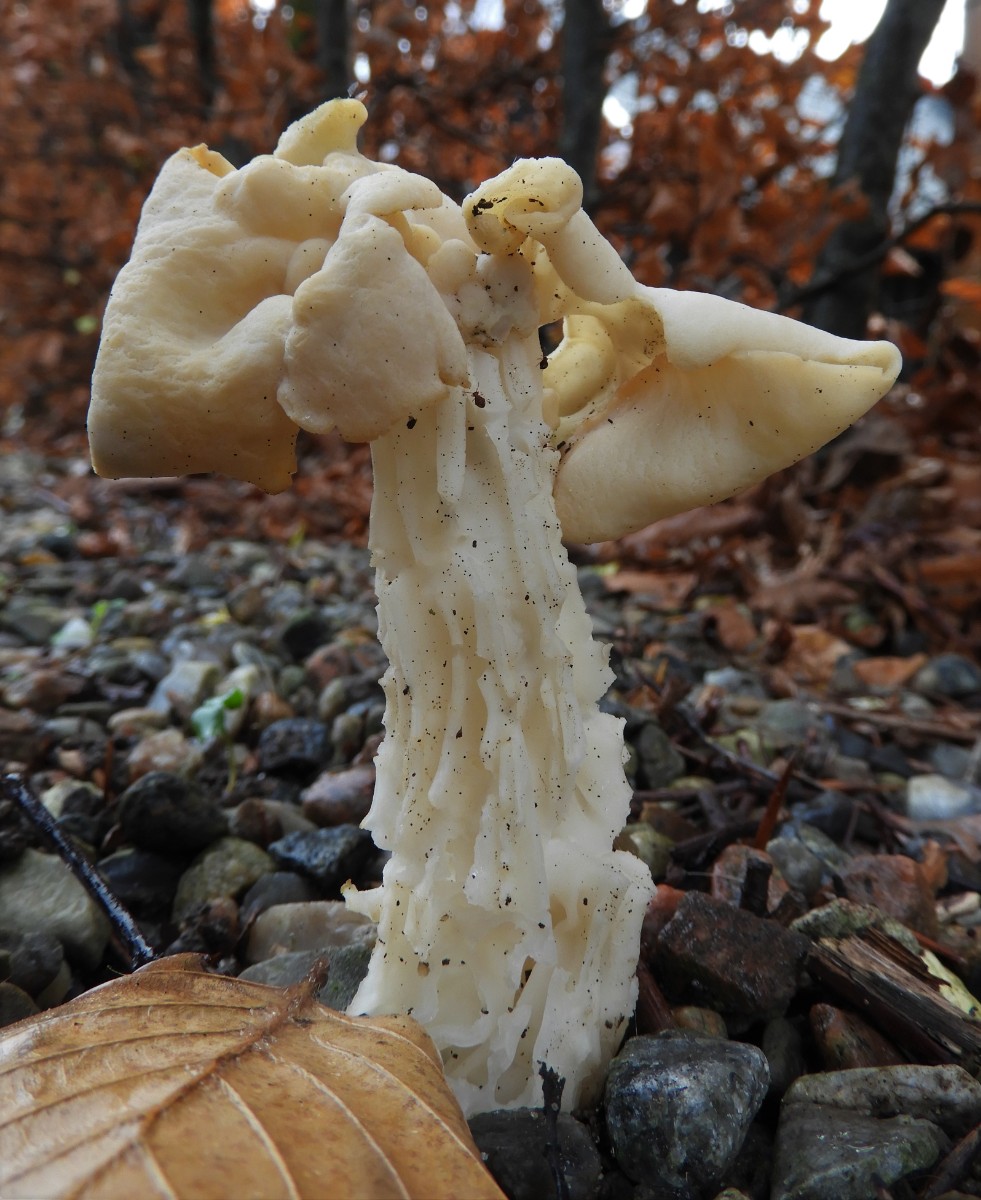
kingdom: Fungi
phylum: Ascomycota
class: Pezizomycetes
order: Pezizales
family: Helvellaceae
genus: Helvella
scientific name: Helvella crispa
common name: kruset foldhat
